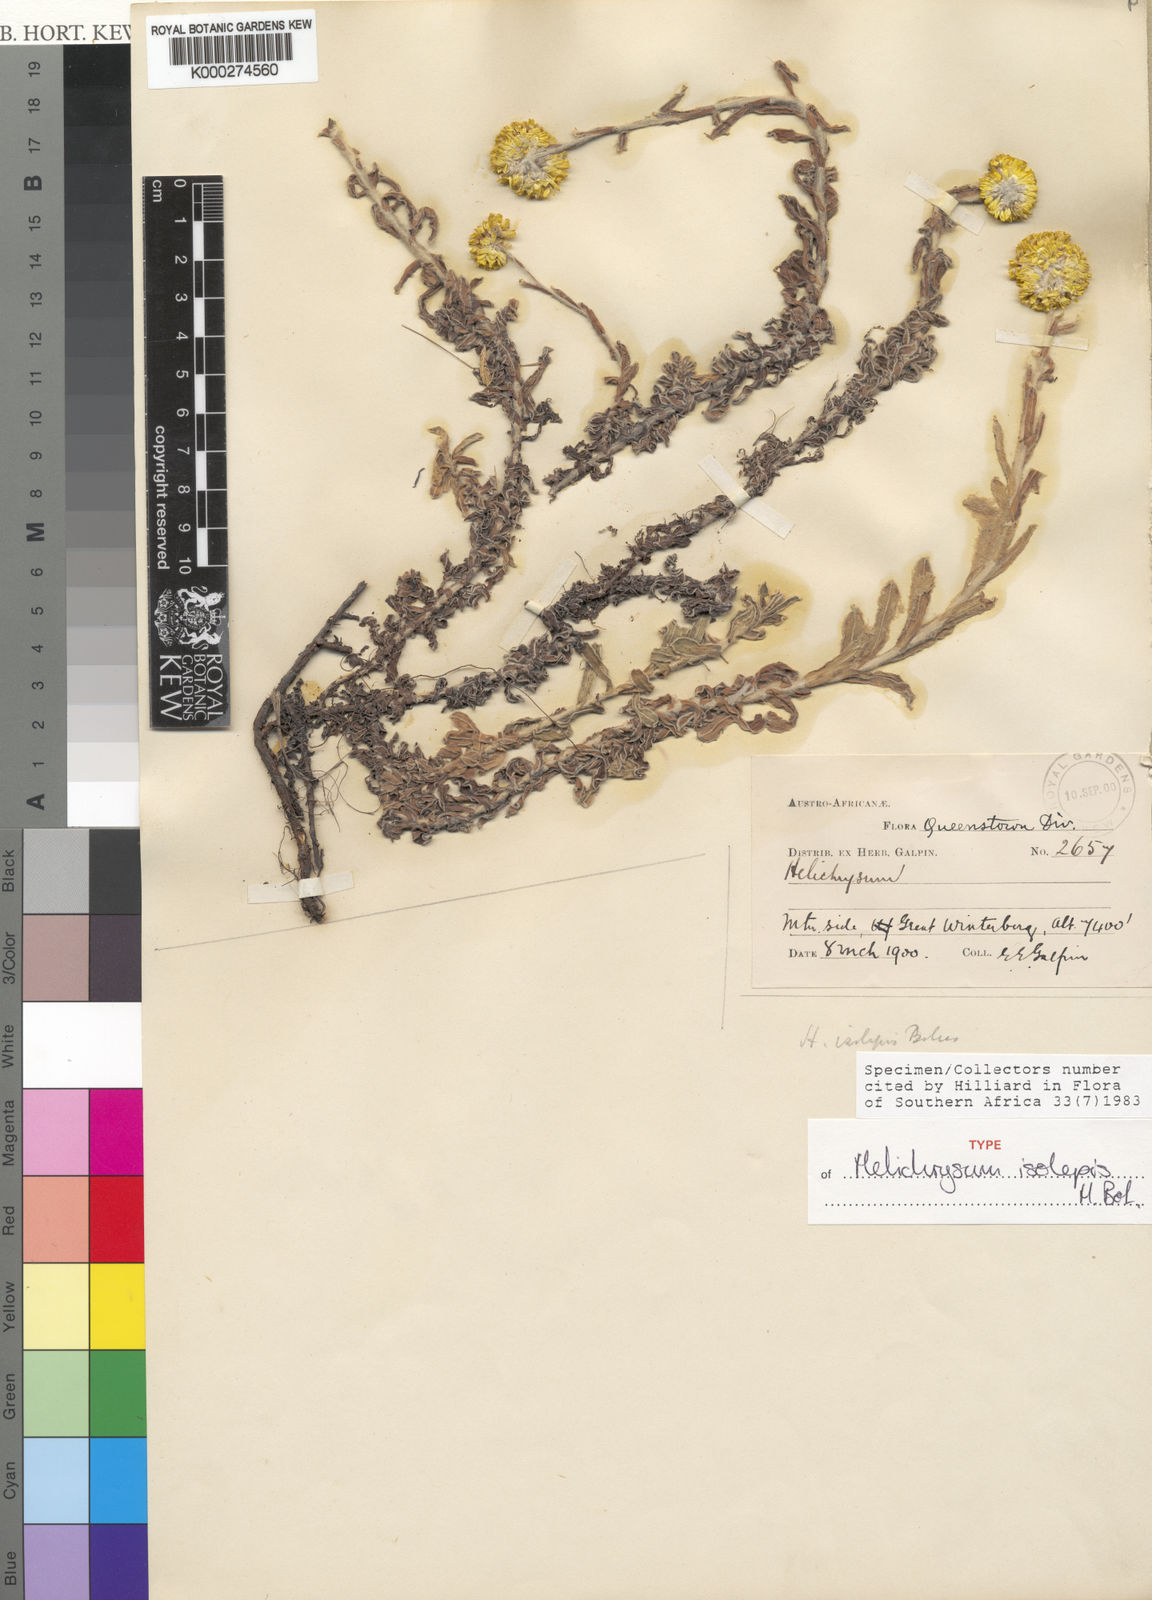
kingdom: Plantae
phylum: Tracheophyta
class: Magnoliopsida
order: Asterales
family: Asteraceae
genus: Helichrysum
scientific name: Helichrysum isolepis
